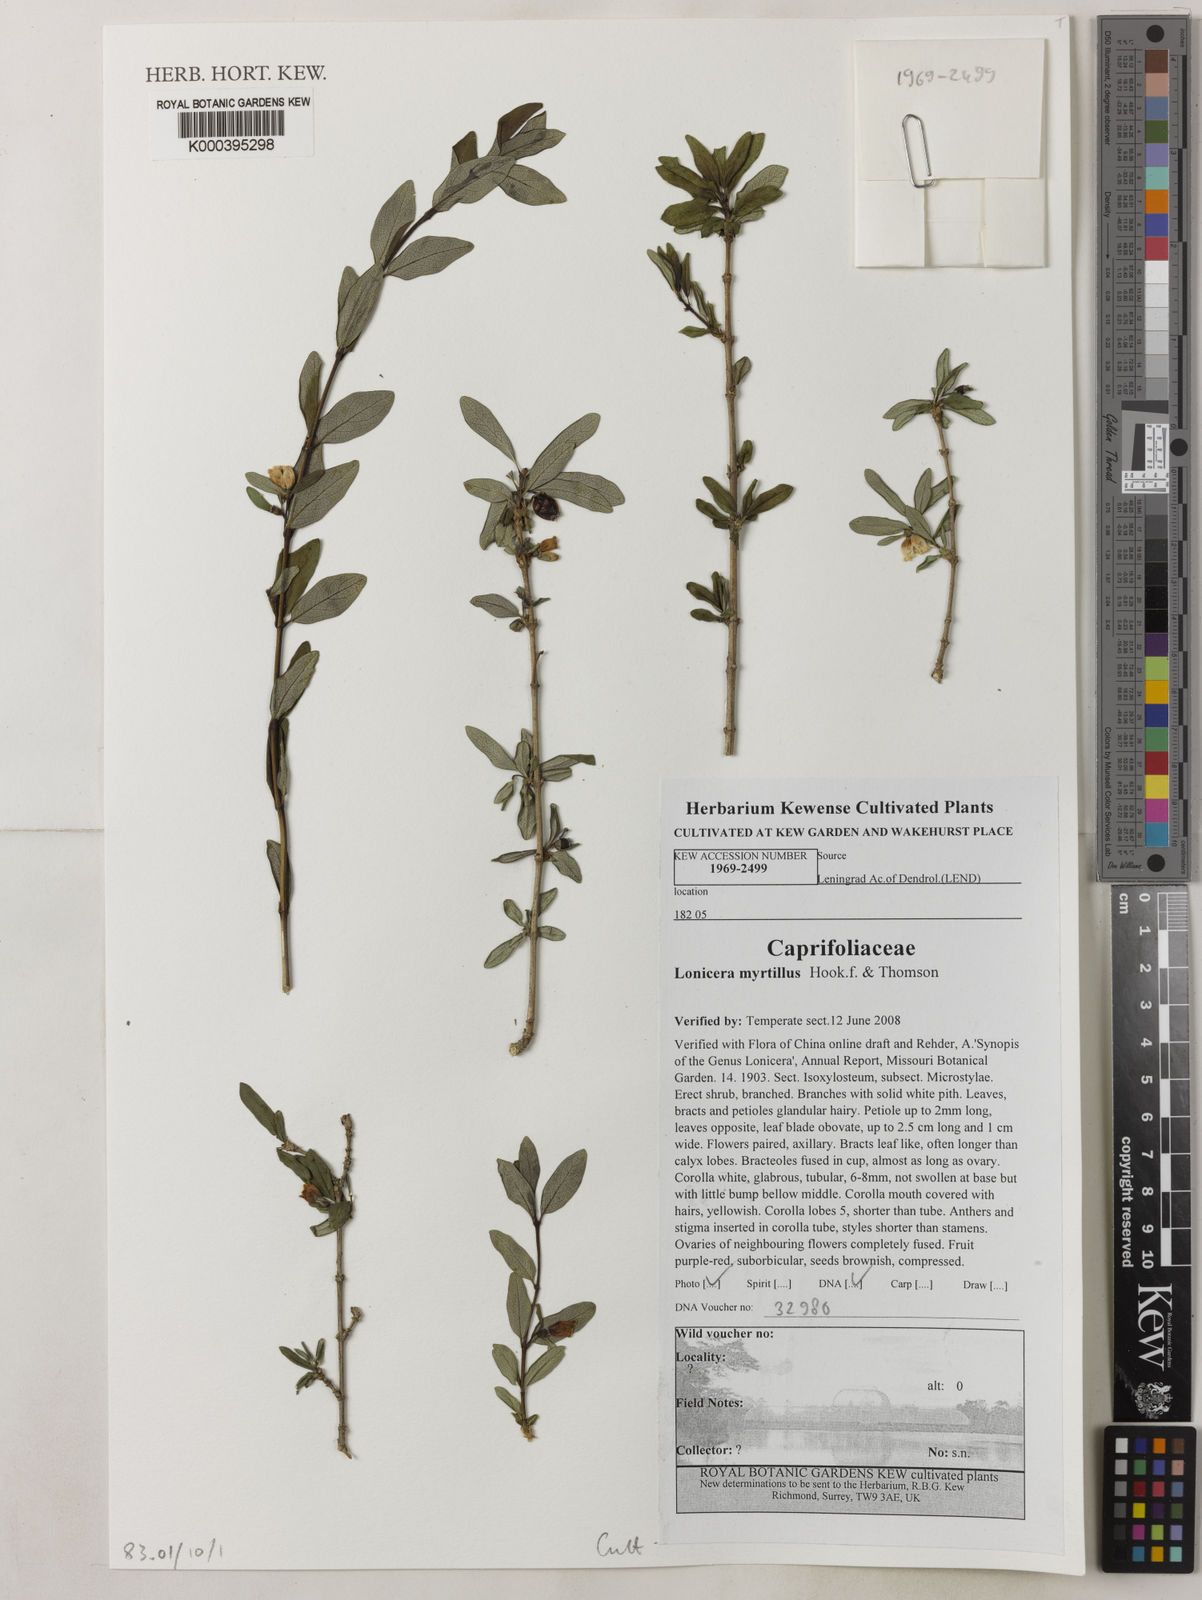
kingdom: Plantae
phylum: Tracheophyta
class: Magnoliopsida
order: Dipsacales
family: Caprifoliaceae
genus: Lonicera
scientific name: Lonicera angustifolia
